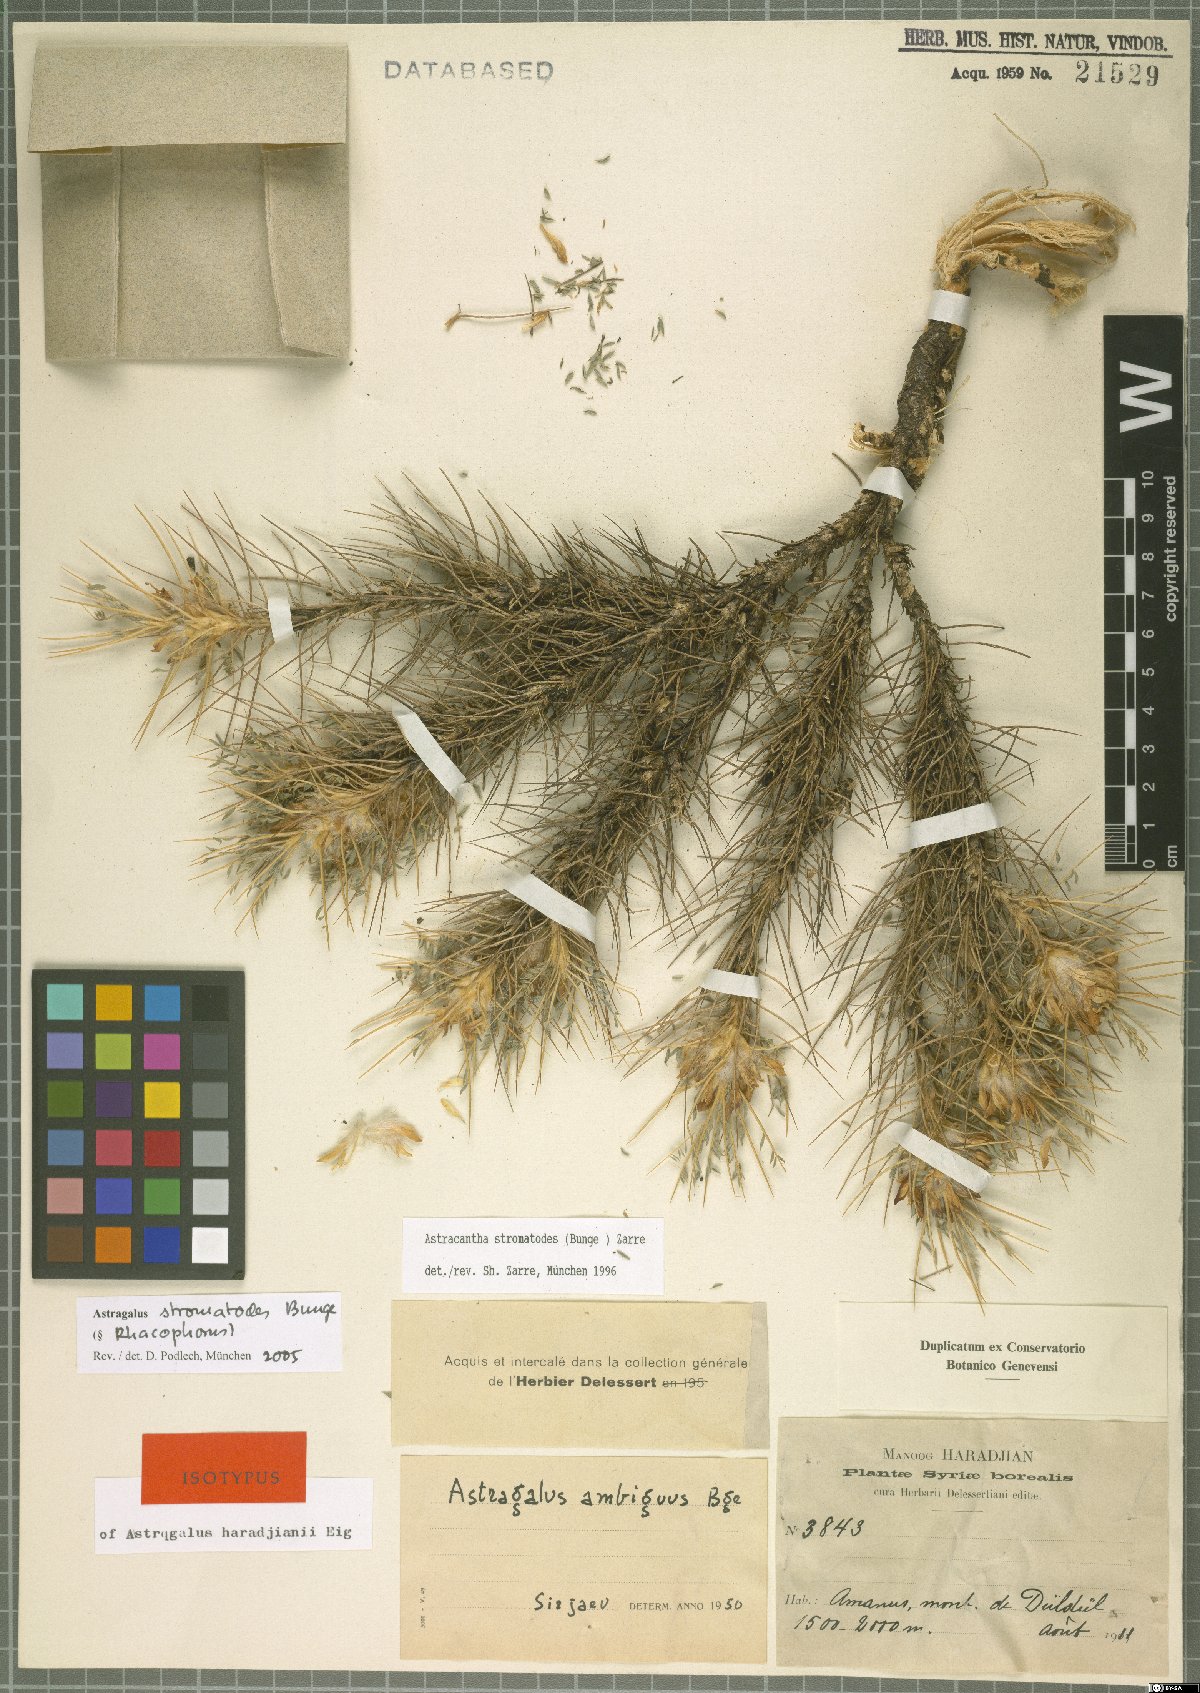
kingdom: Plantae
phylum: Tracheophyta
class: Magnoliopsida
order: Fabales
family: Fabaceae
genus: Astragalus
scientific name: Astragalus cymbostegis
